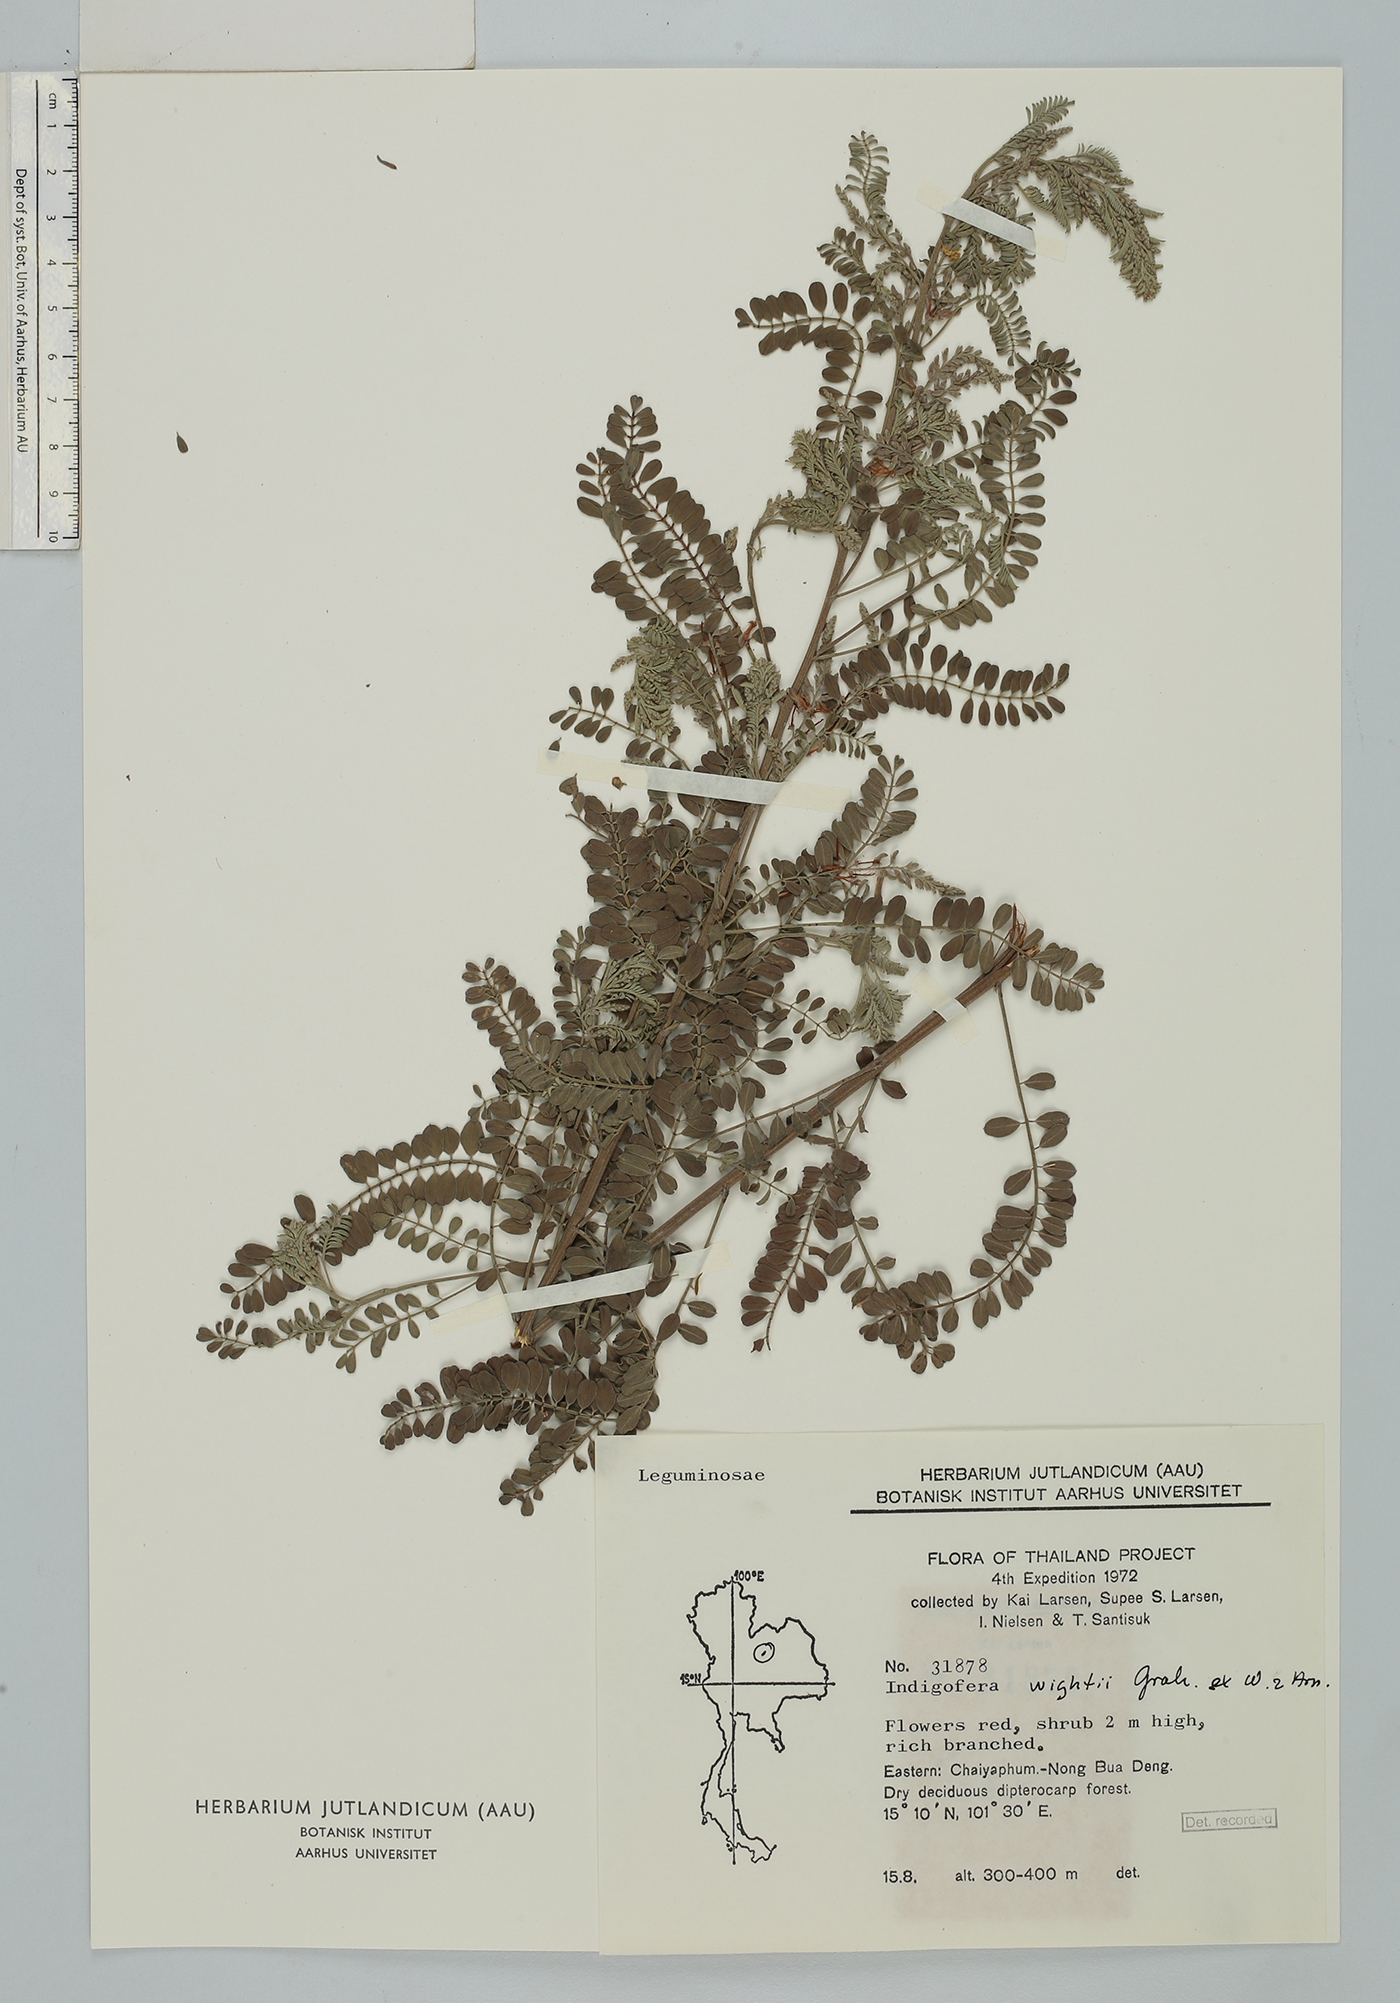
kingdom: Plantae
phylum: Tracheophyta
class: Magnoliopsida
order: Fabales
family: Fabaceae
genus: Indigofera
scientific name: Indigofera wightii
